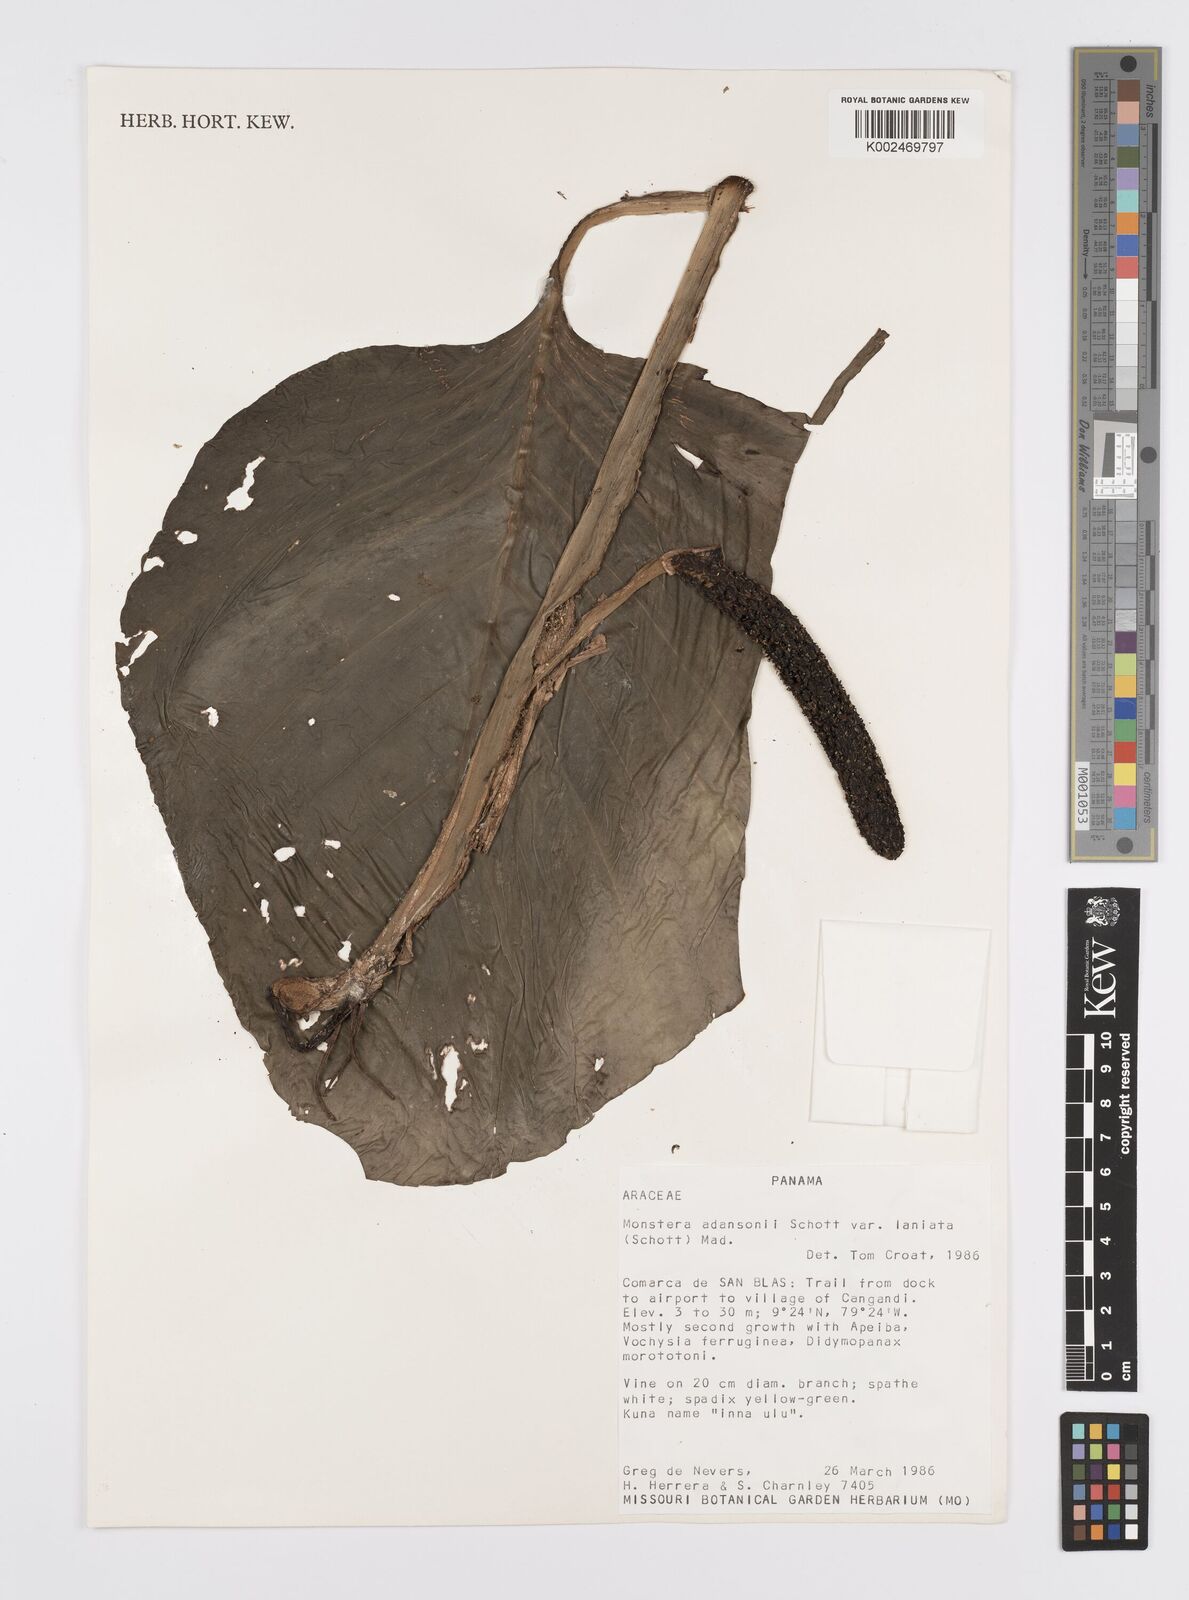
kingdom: Plantae
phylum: Tracheophyta
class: Liliopsida
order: Alismatales
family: Araceae
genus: Monstera
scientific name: Monstera adansonii
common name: Tarovine
